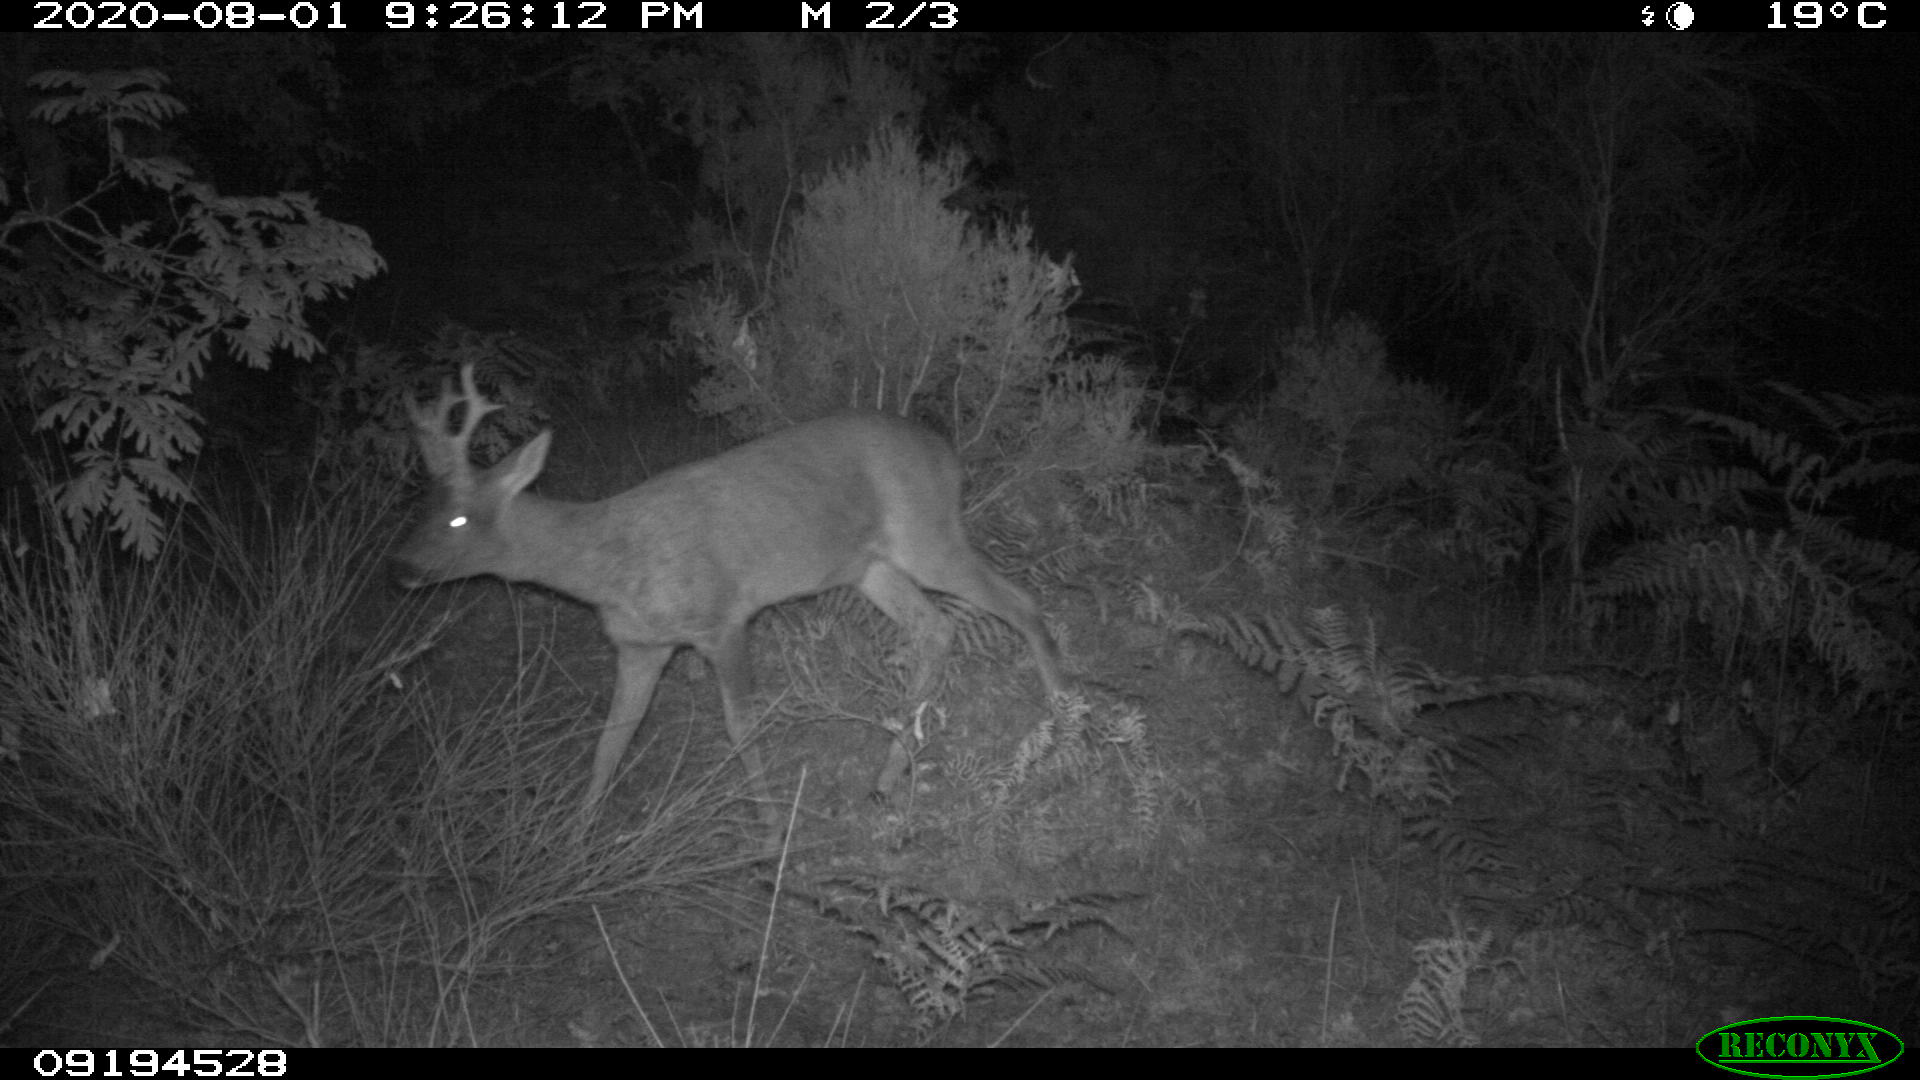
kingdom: Animalia
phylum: Chordata
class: Mammalia
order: Artiodactyla
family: Cervidae
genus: Capreolus
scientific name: Capreolus capreolus
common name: Western roe deer
